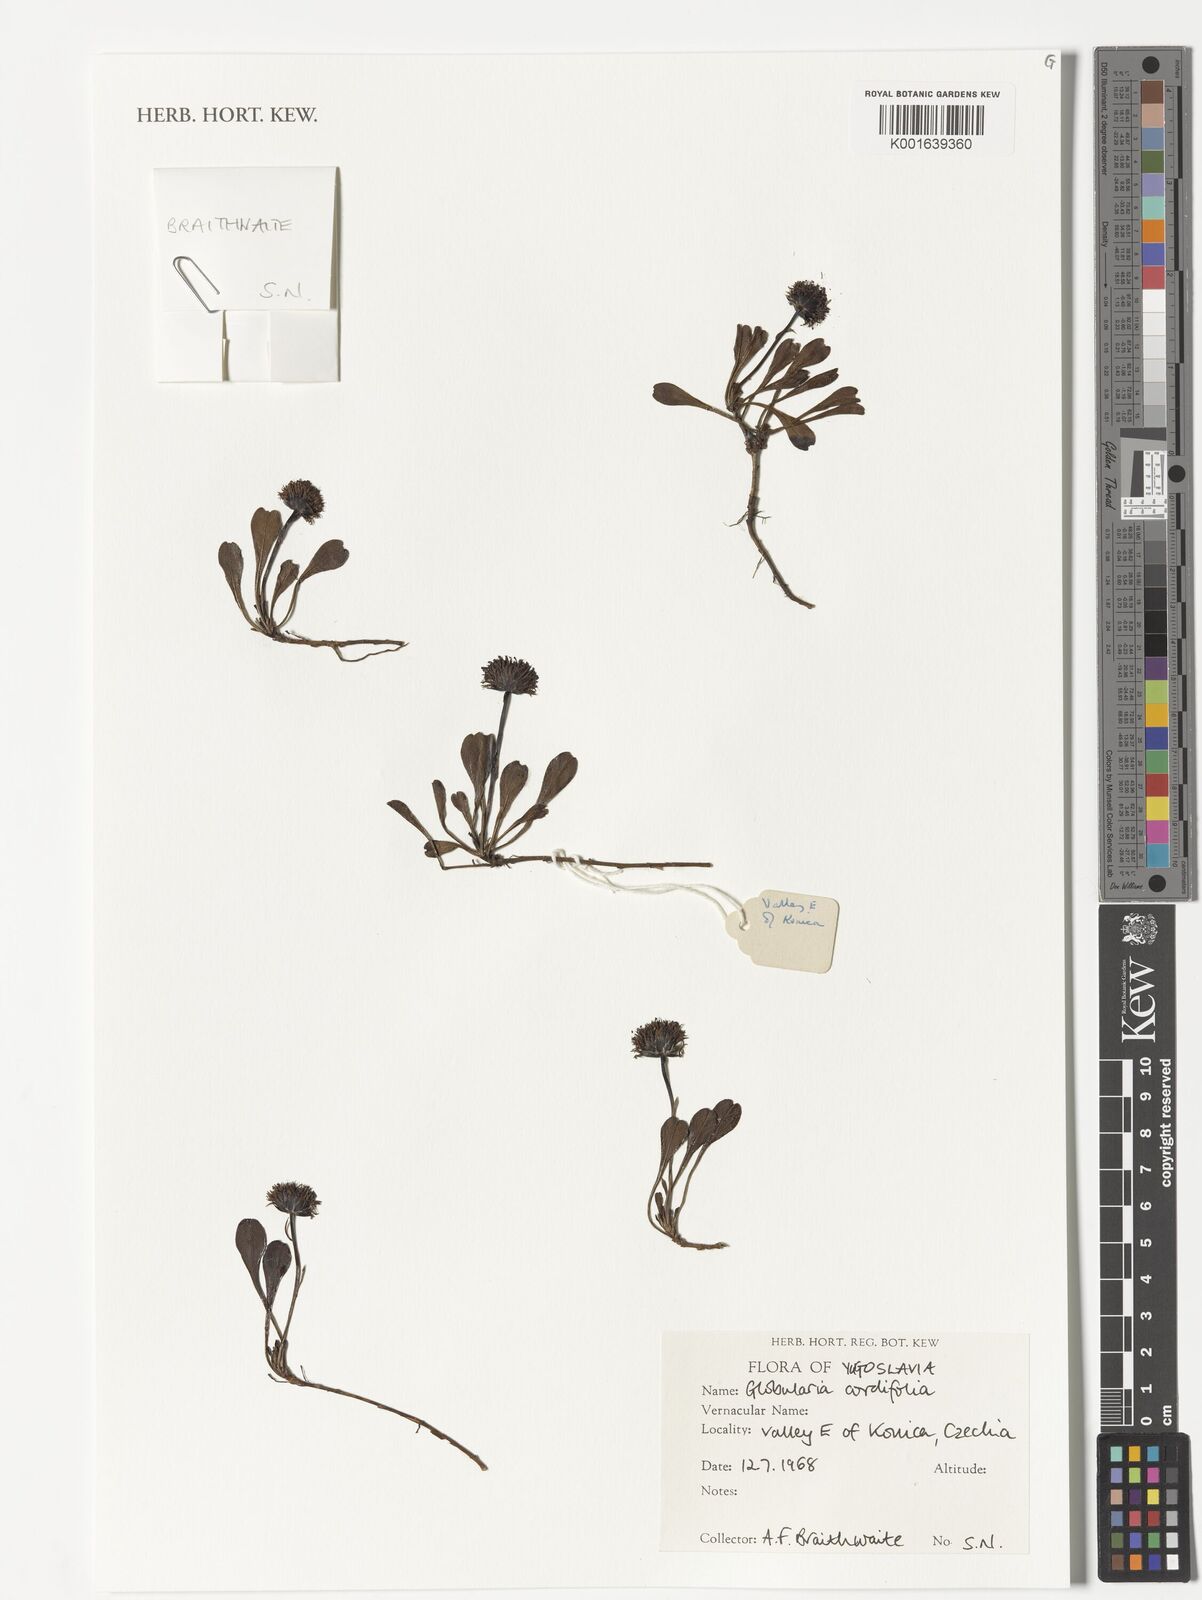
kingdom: Plantae
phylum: Tracheophyta
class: Magnoliopsida
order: Lamiales
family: Plantaginaceae
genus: Globularia
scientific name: Globularia cordifolia
